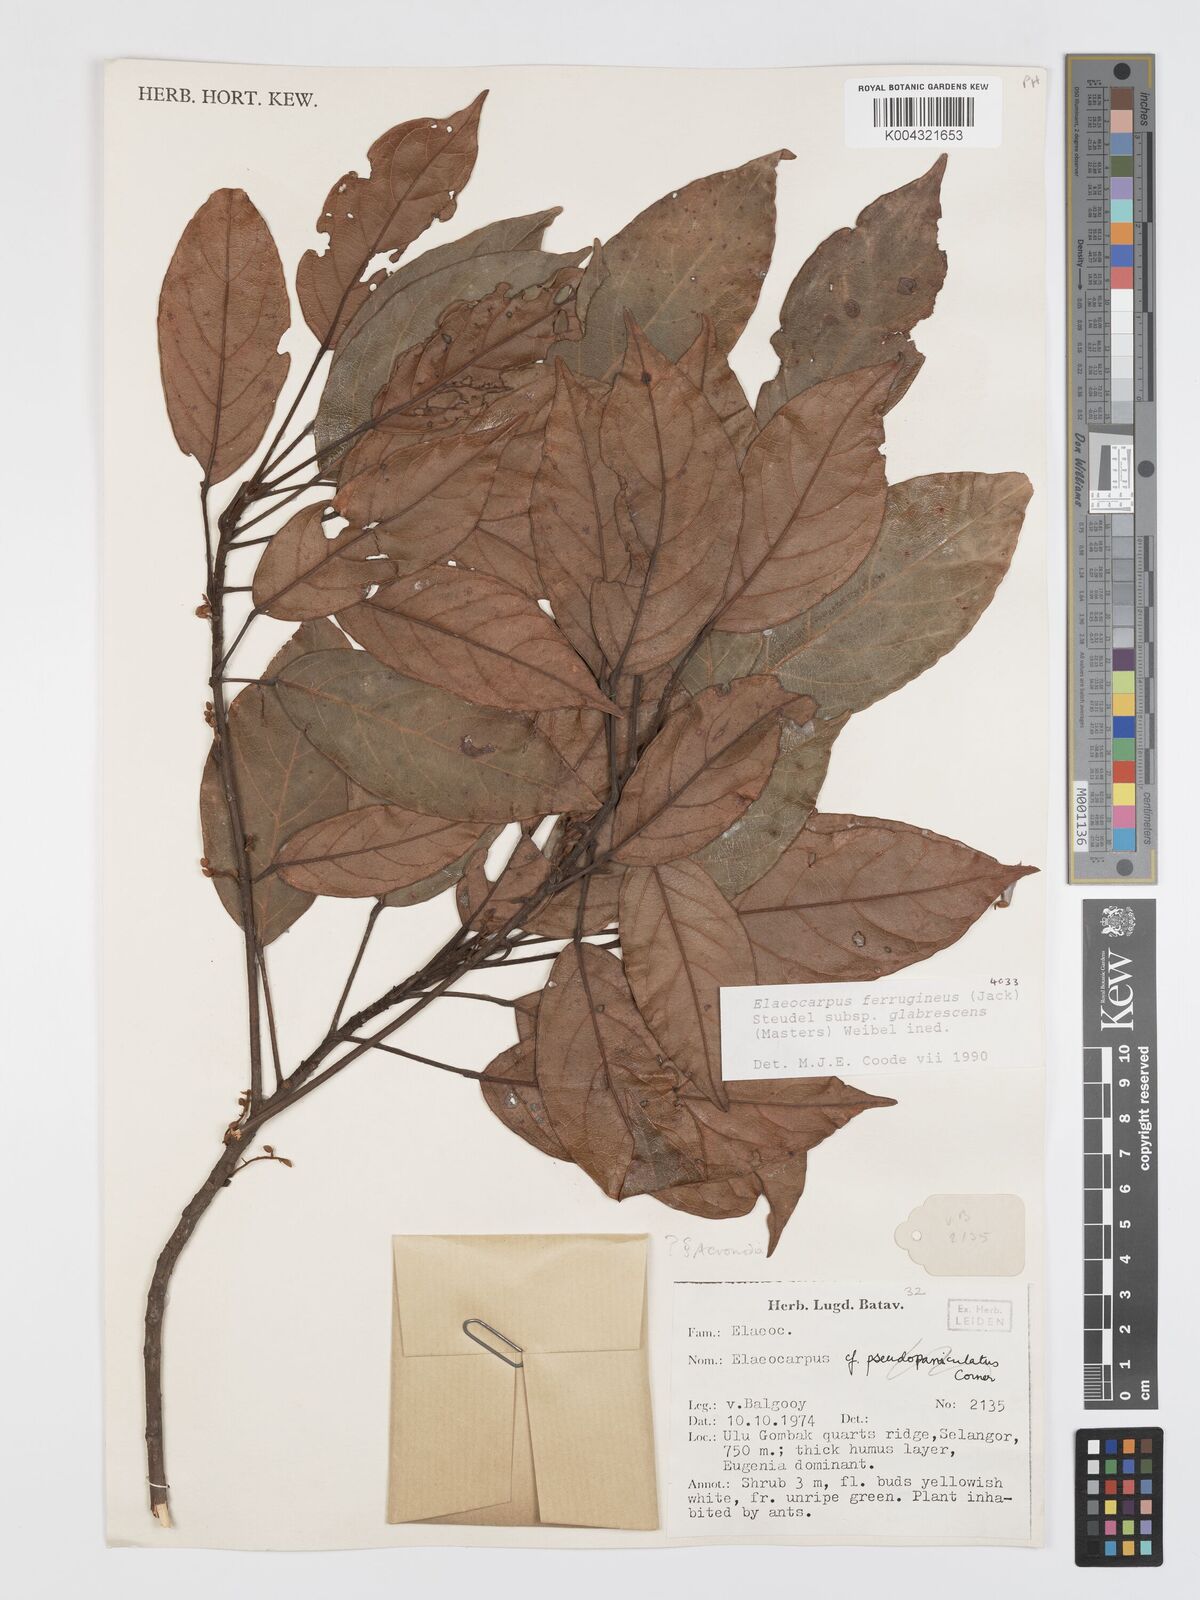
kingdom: Plantae
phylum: Tracheophyta
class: Magnoliopsida
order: Oxalidales
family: Elaeocarpaceae
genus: Elaeocarpus
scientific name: Elaeocarpus ferrugineus
